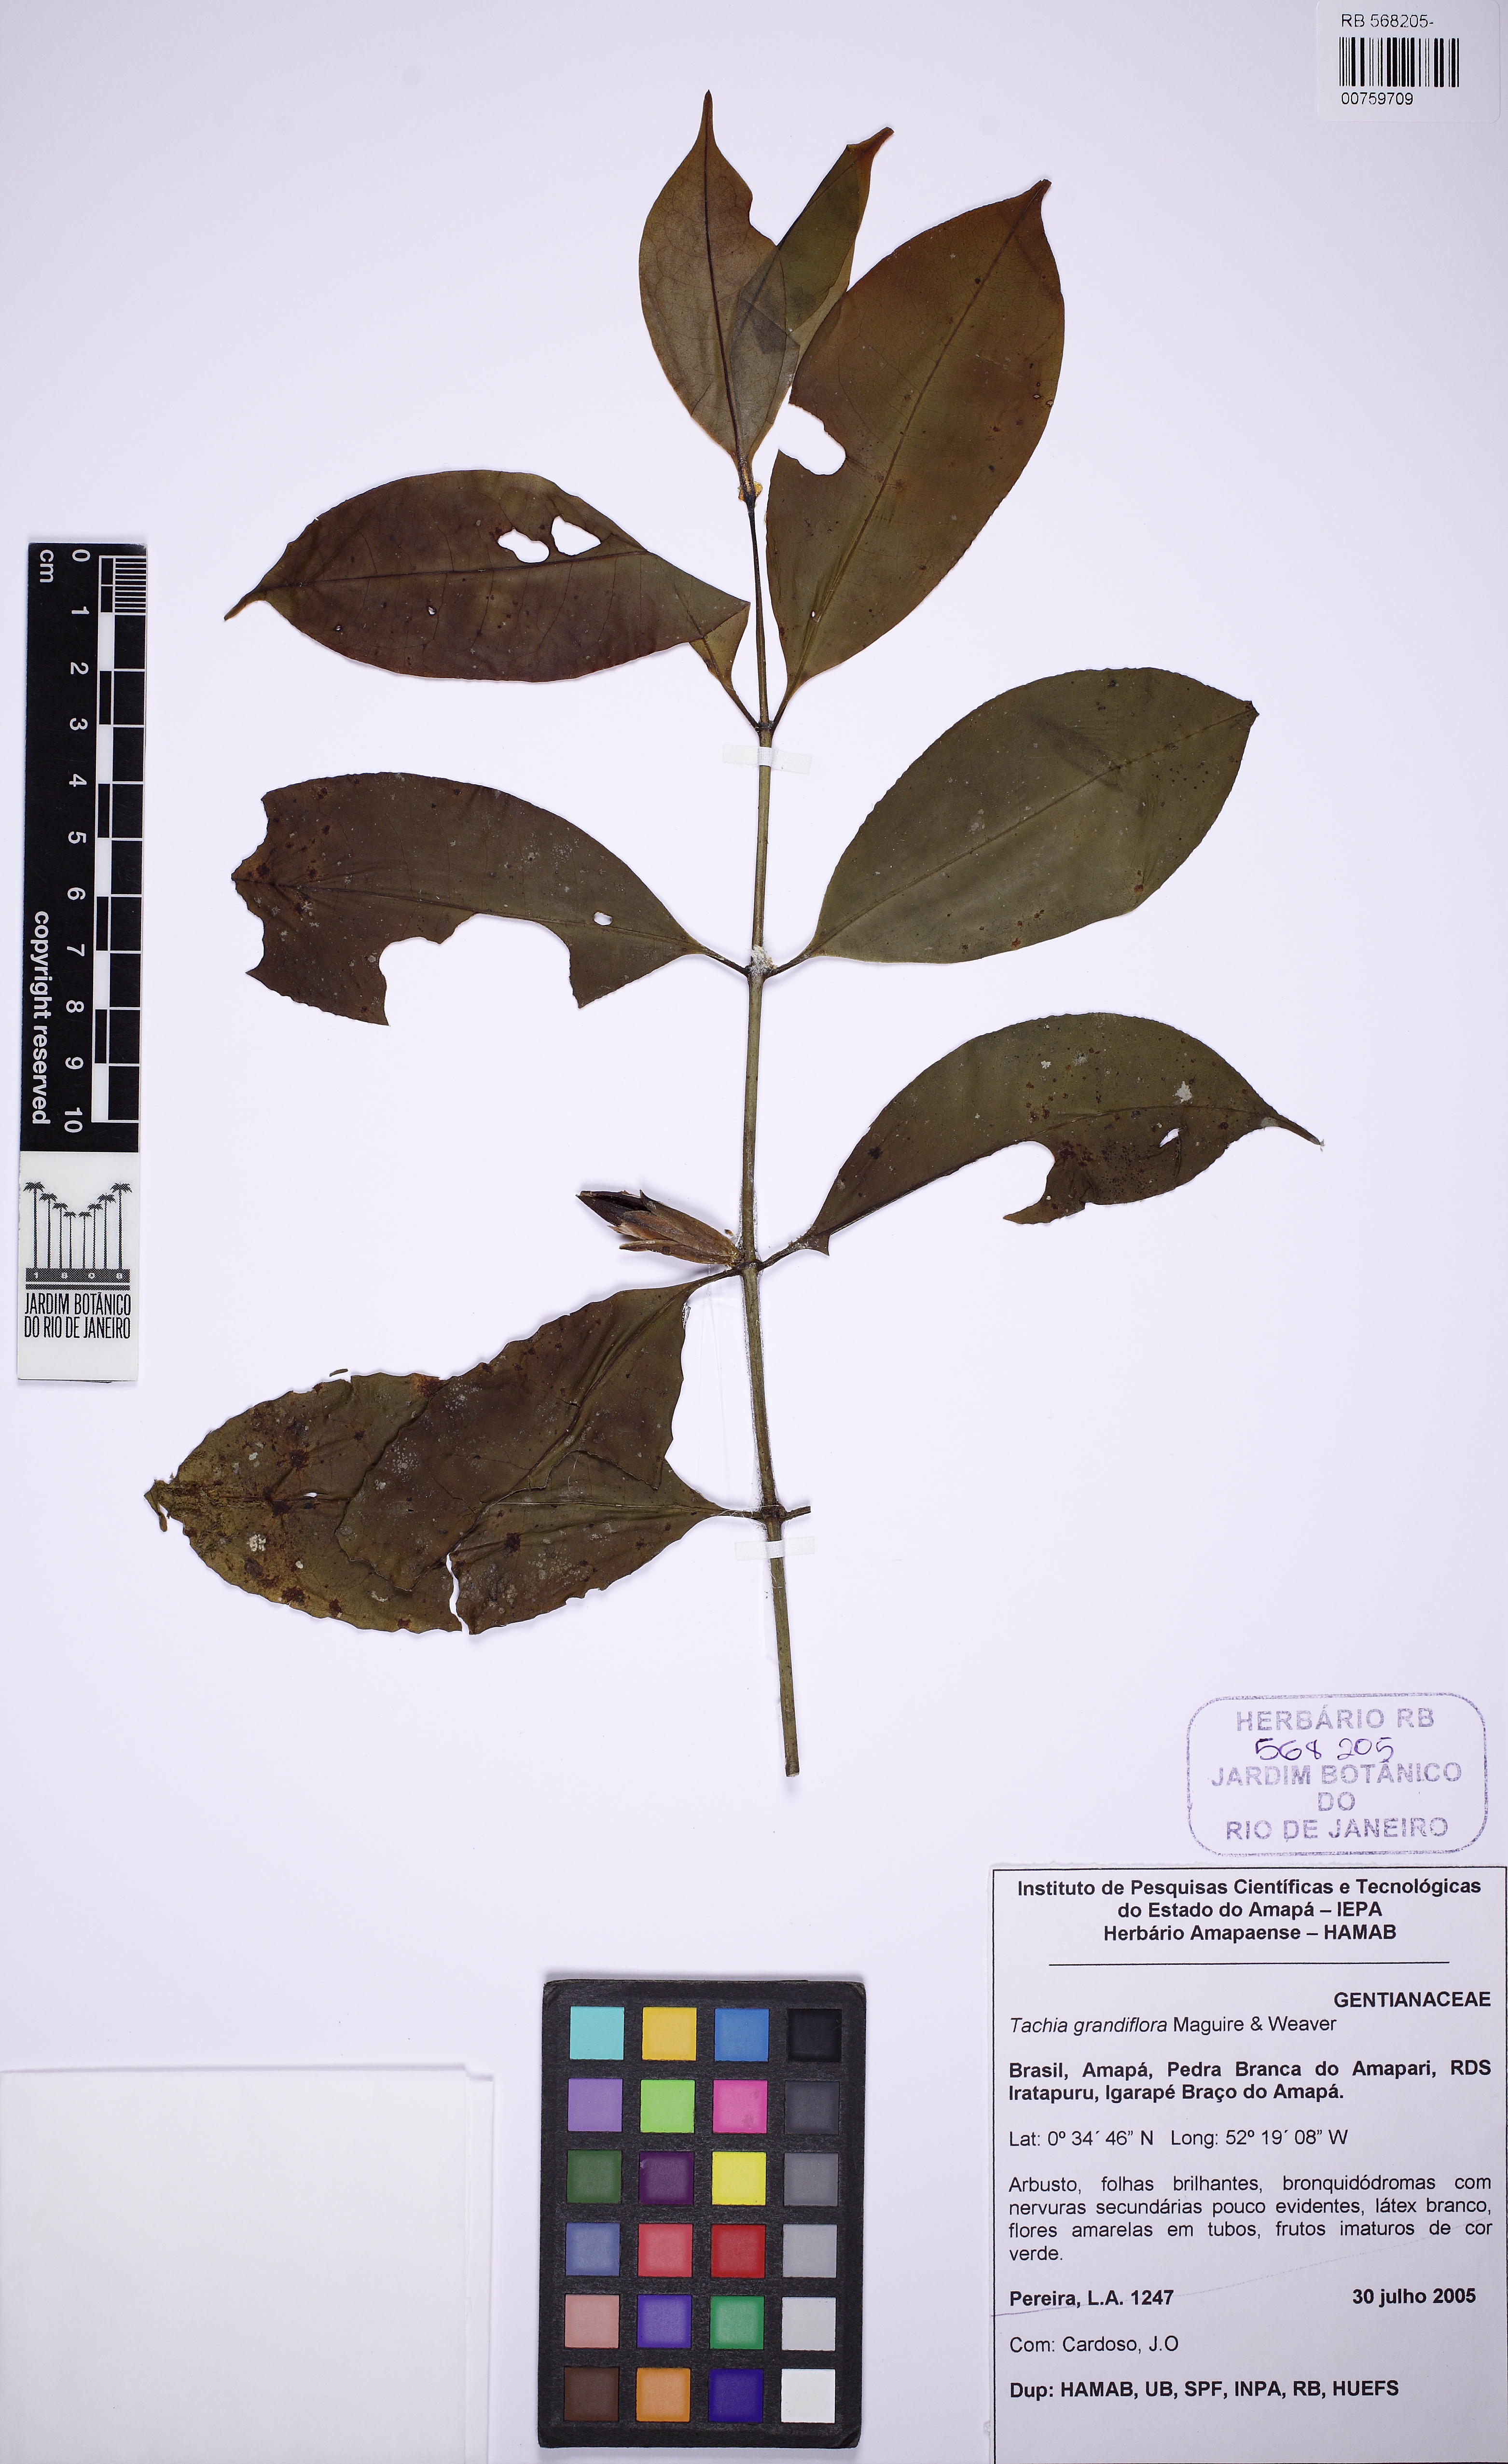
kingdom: Plantae
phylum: Tracheophyta
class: Magnoliopsida
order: Gentianales
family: Gentianaceae
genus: Tachia
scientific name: Tachia grandiflora
